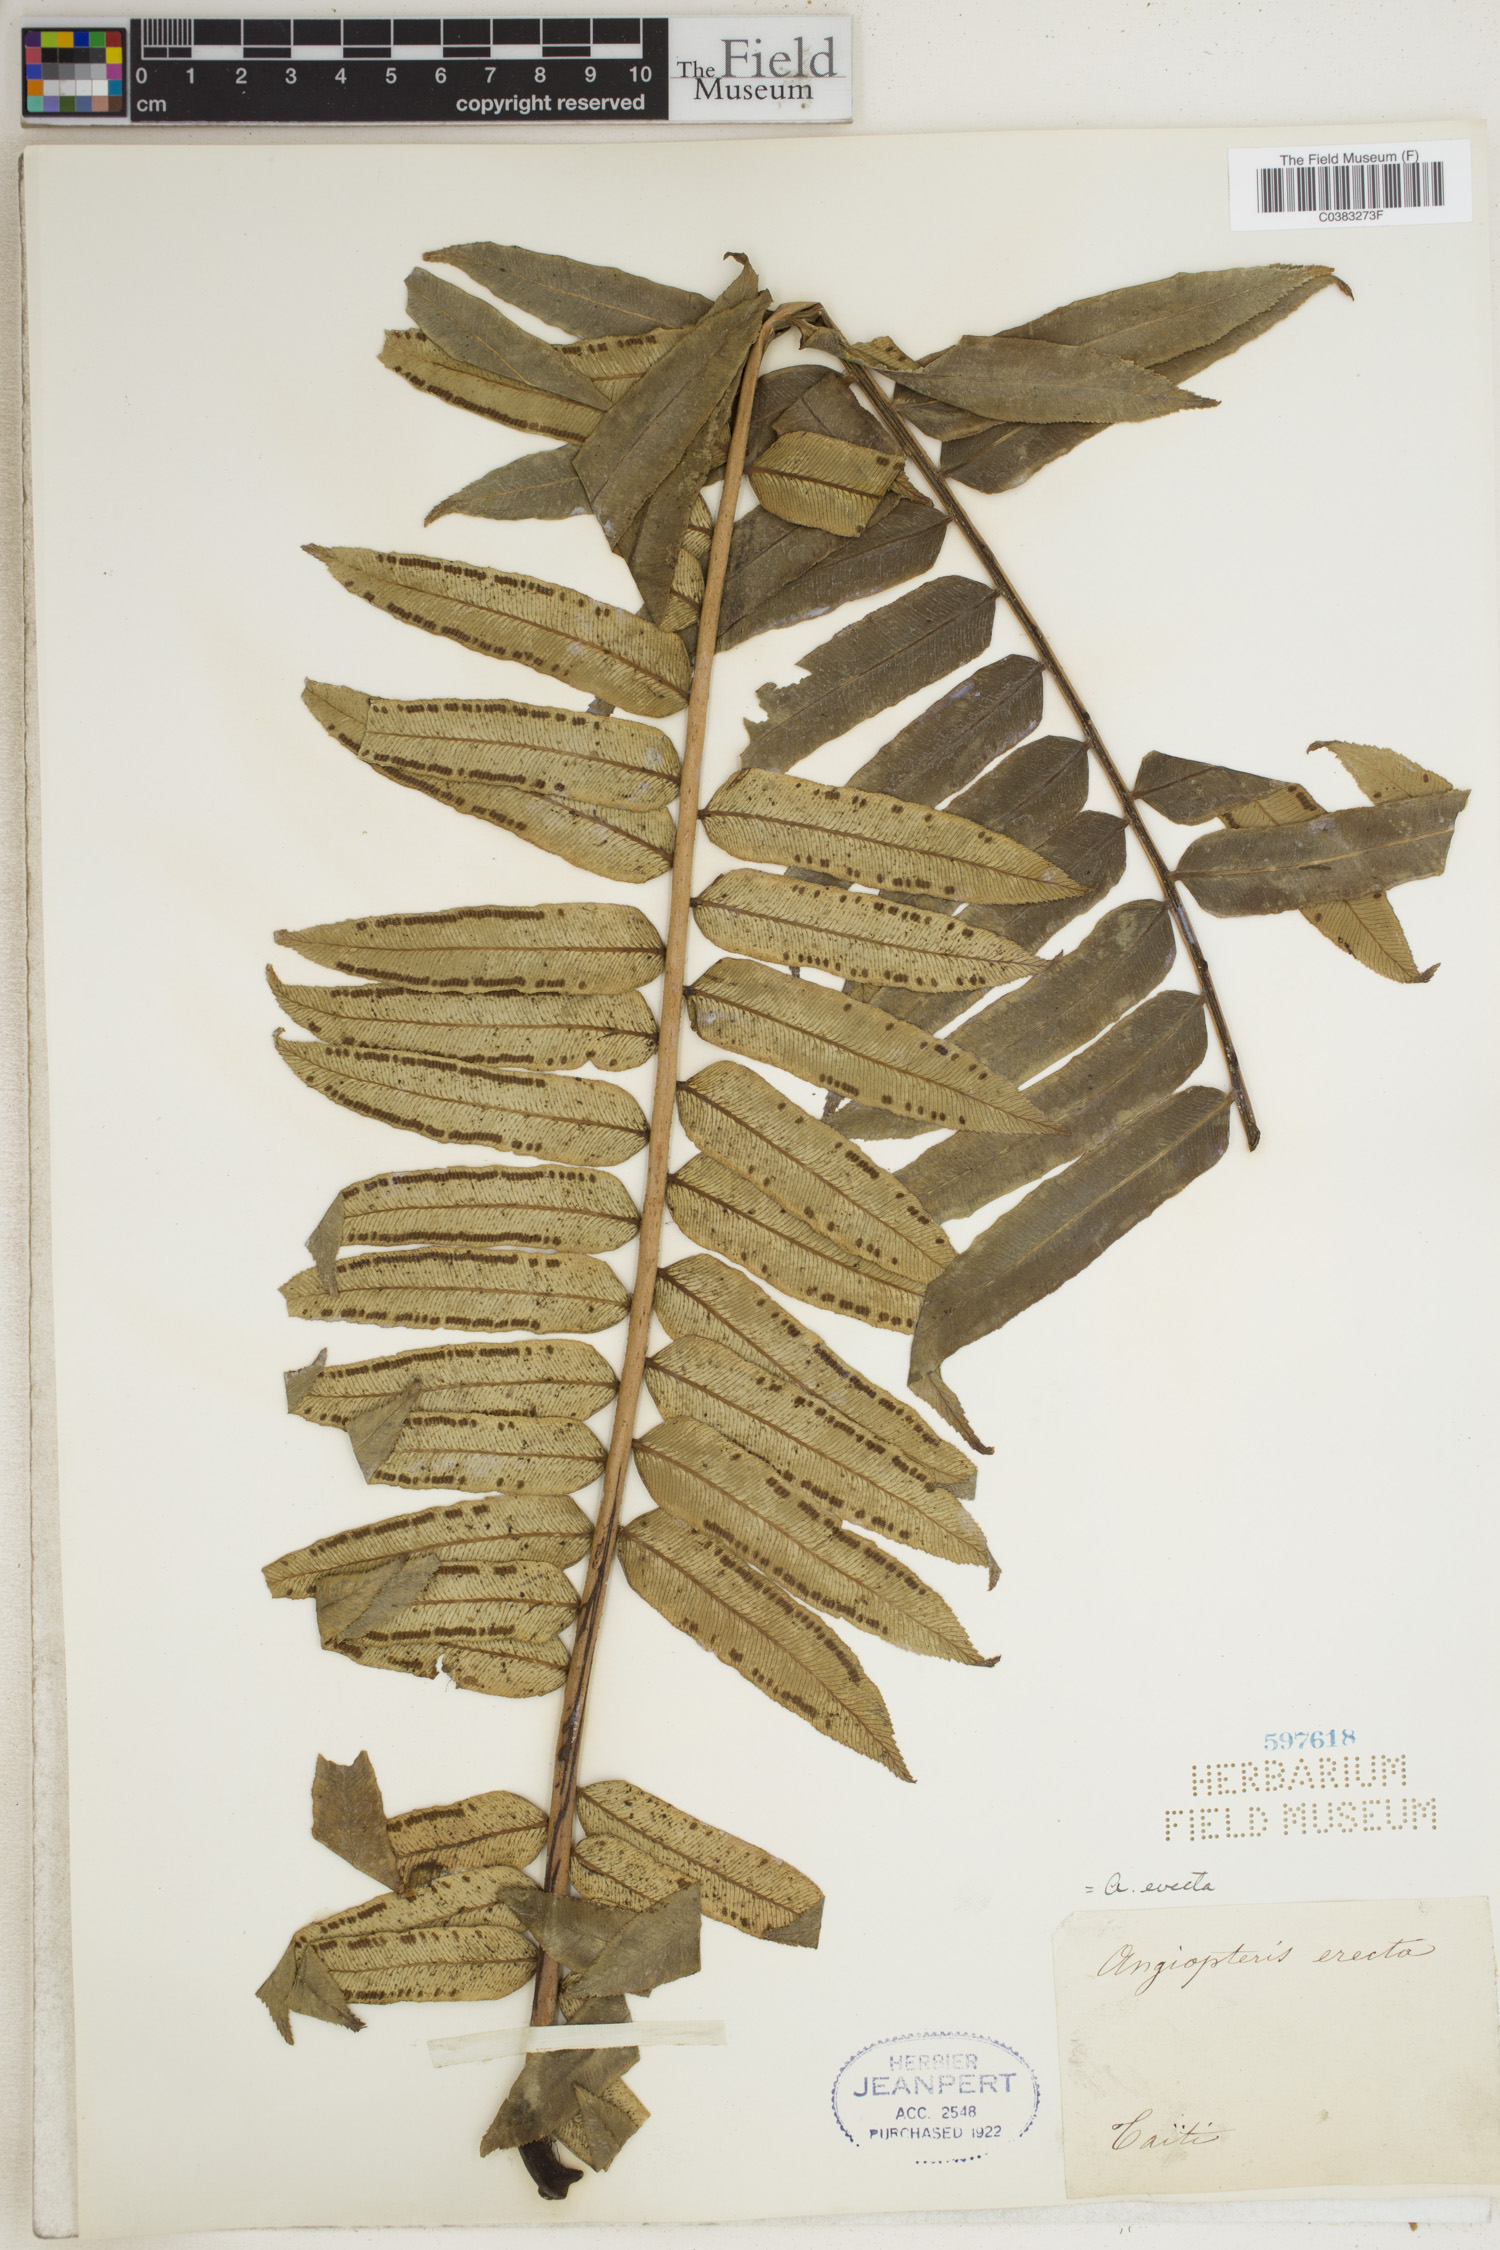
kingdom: Plantae
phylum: Tracheophyta
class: Polypodiopsida
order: Marattiales
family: Marattiaceae
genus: Angiopteris
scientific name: Angiopteris evecta
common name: Mule's-foot fern
